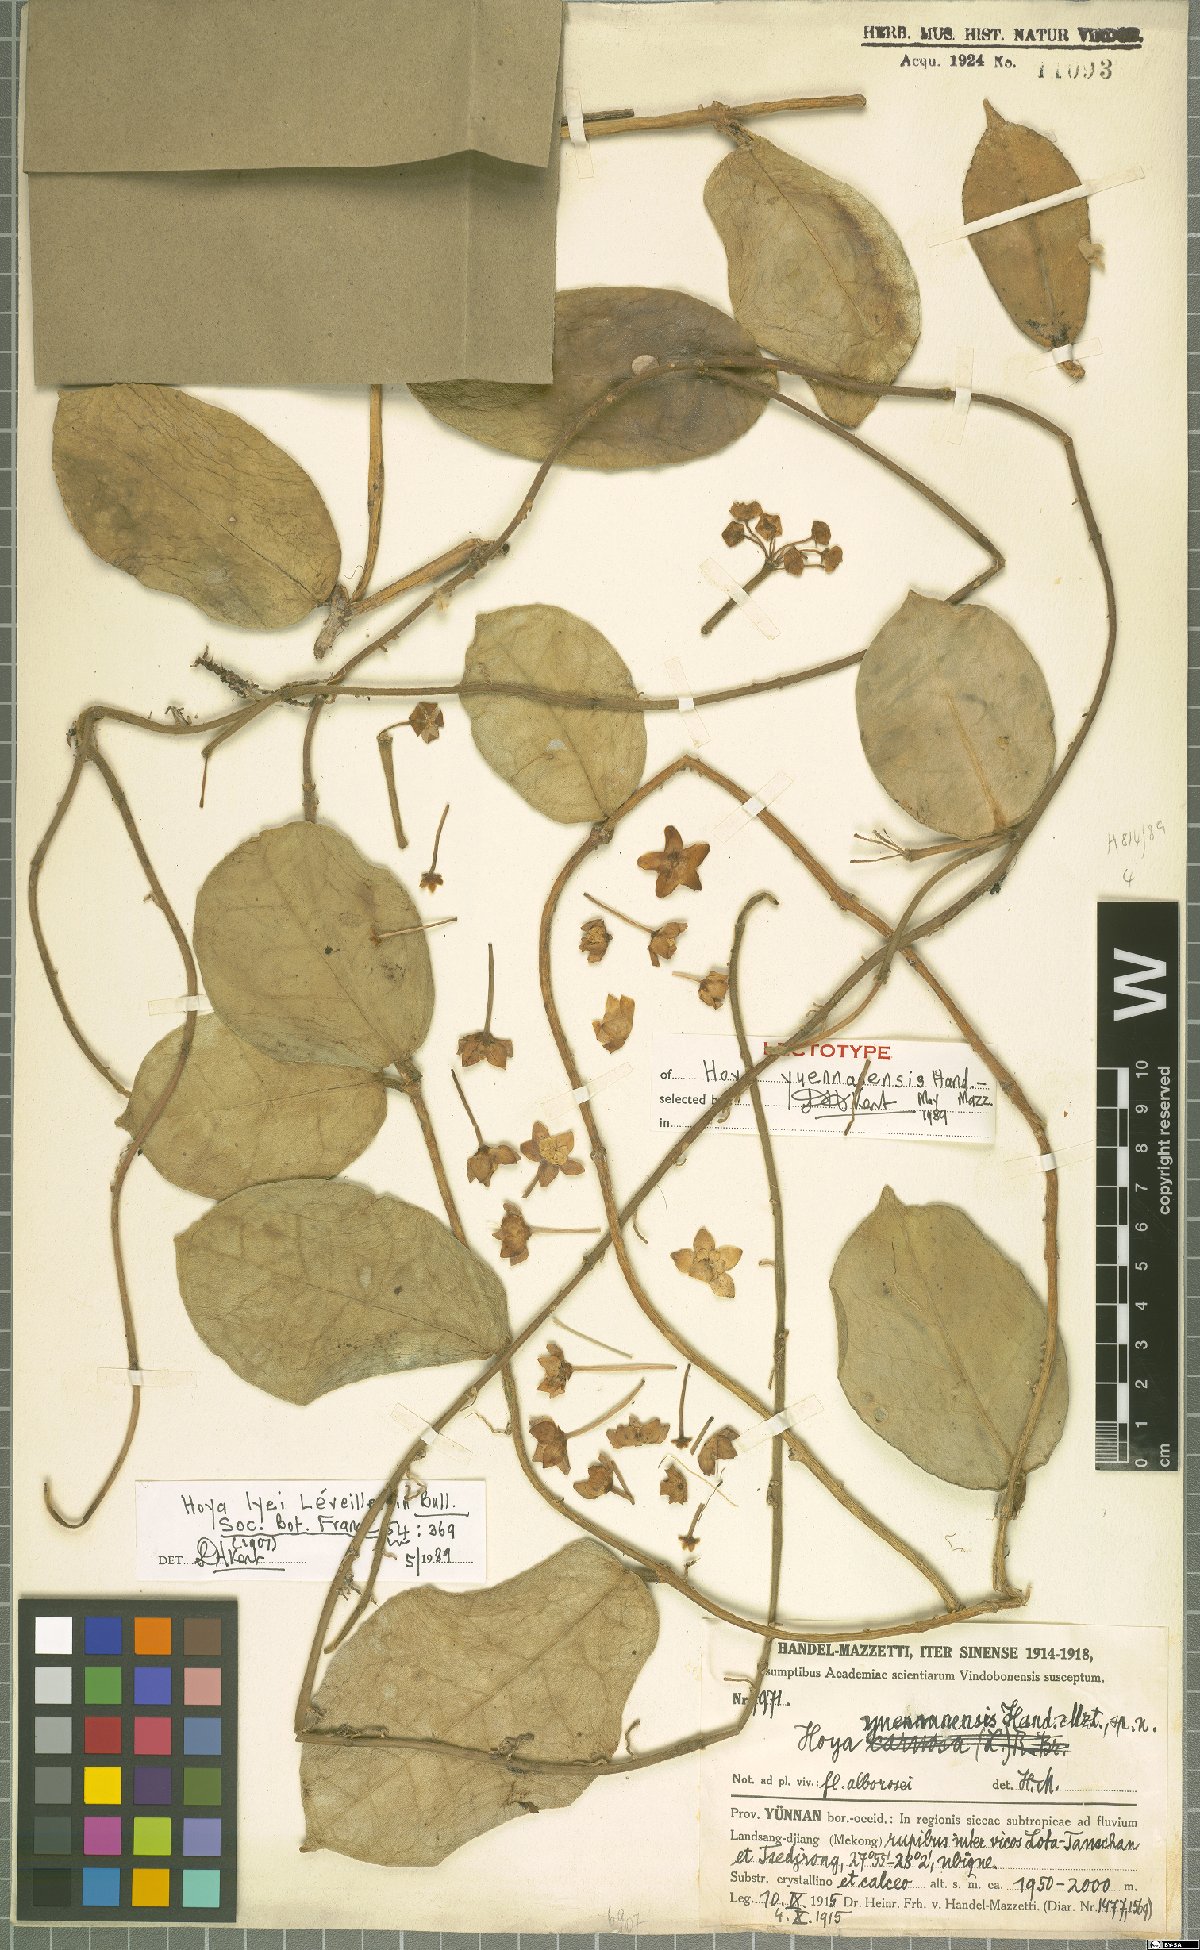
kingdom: Plantae
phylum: Tracheophyta
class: Magnoliopsida
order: Gentianales
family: Apocynaceae
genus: Hoya
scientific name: Hoya yuennanensis
